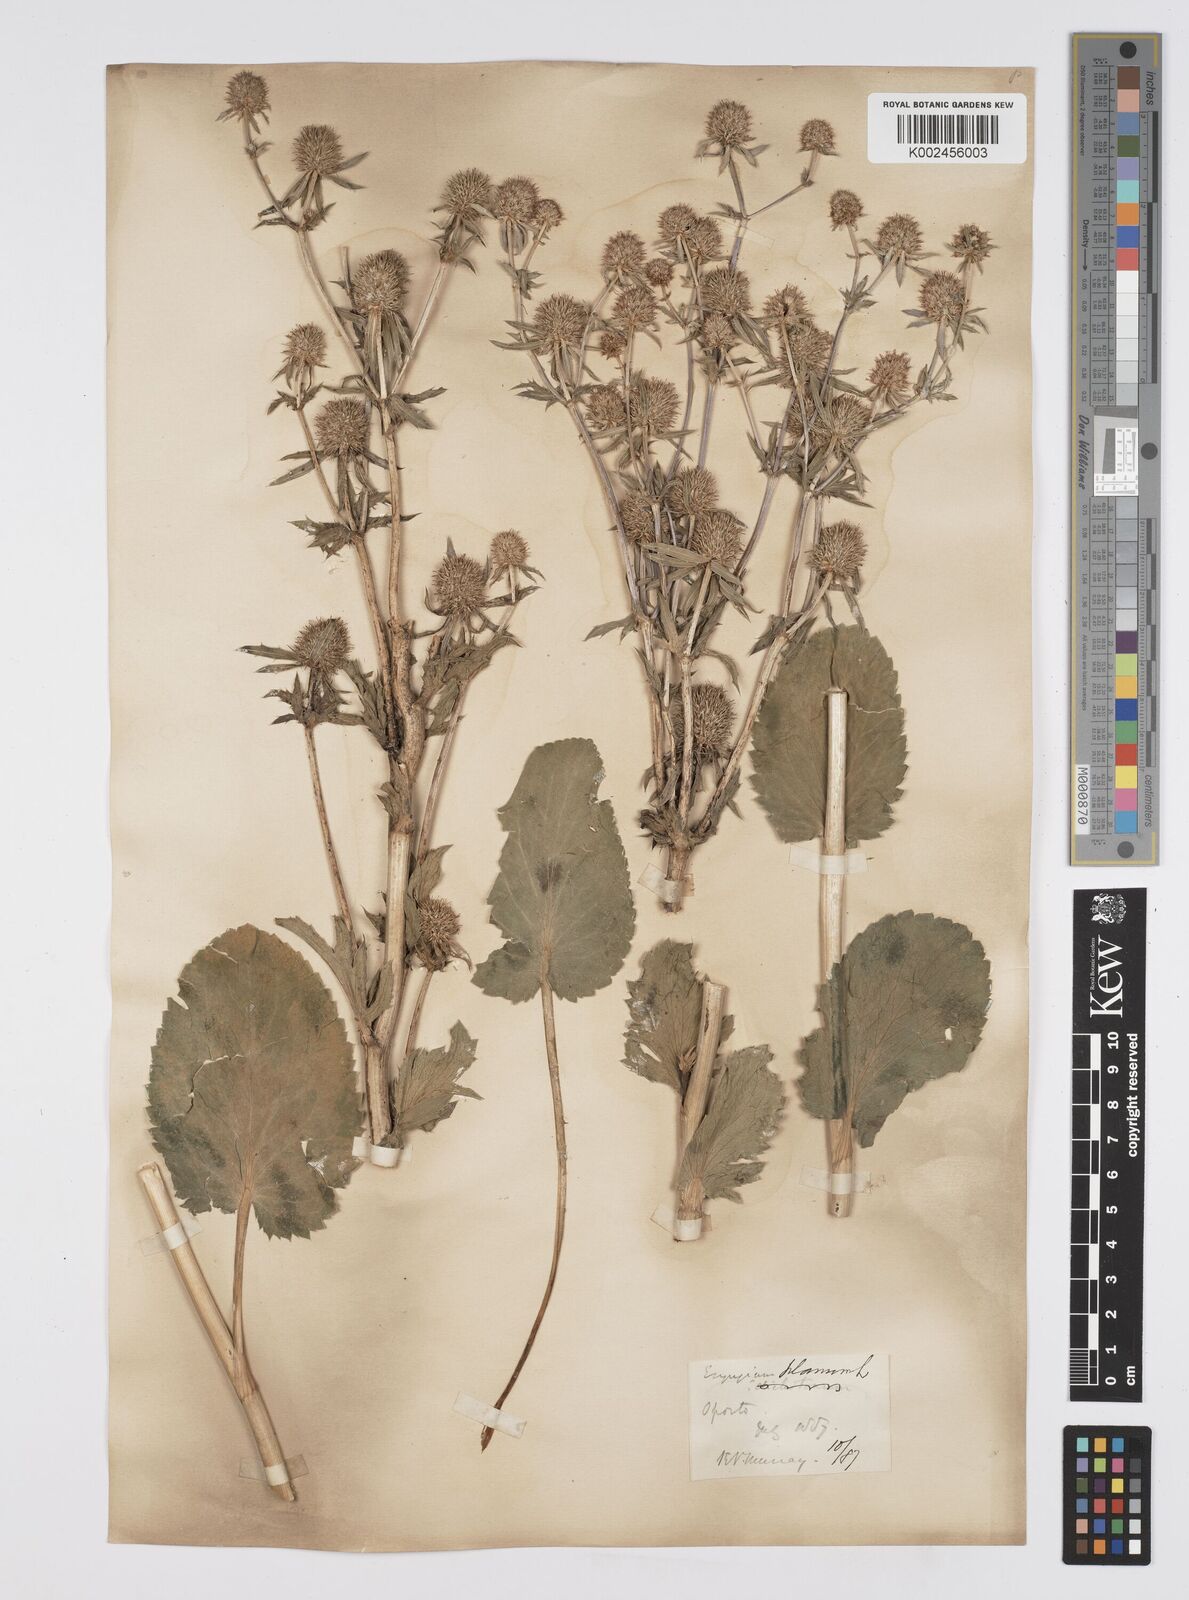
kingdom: Plantae
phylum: Tracheophyta
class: Magnoliopsida
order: Apiales
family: Apiaceae
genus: Eryngium
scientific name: Eryngium planum
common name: Blue eryngo
